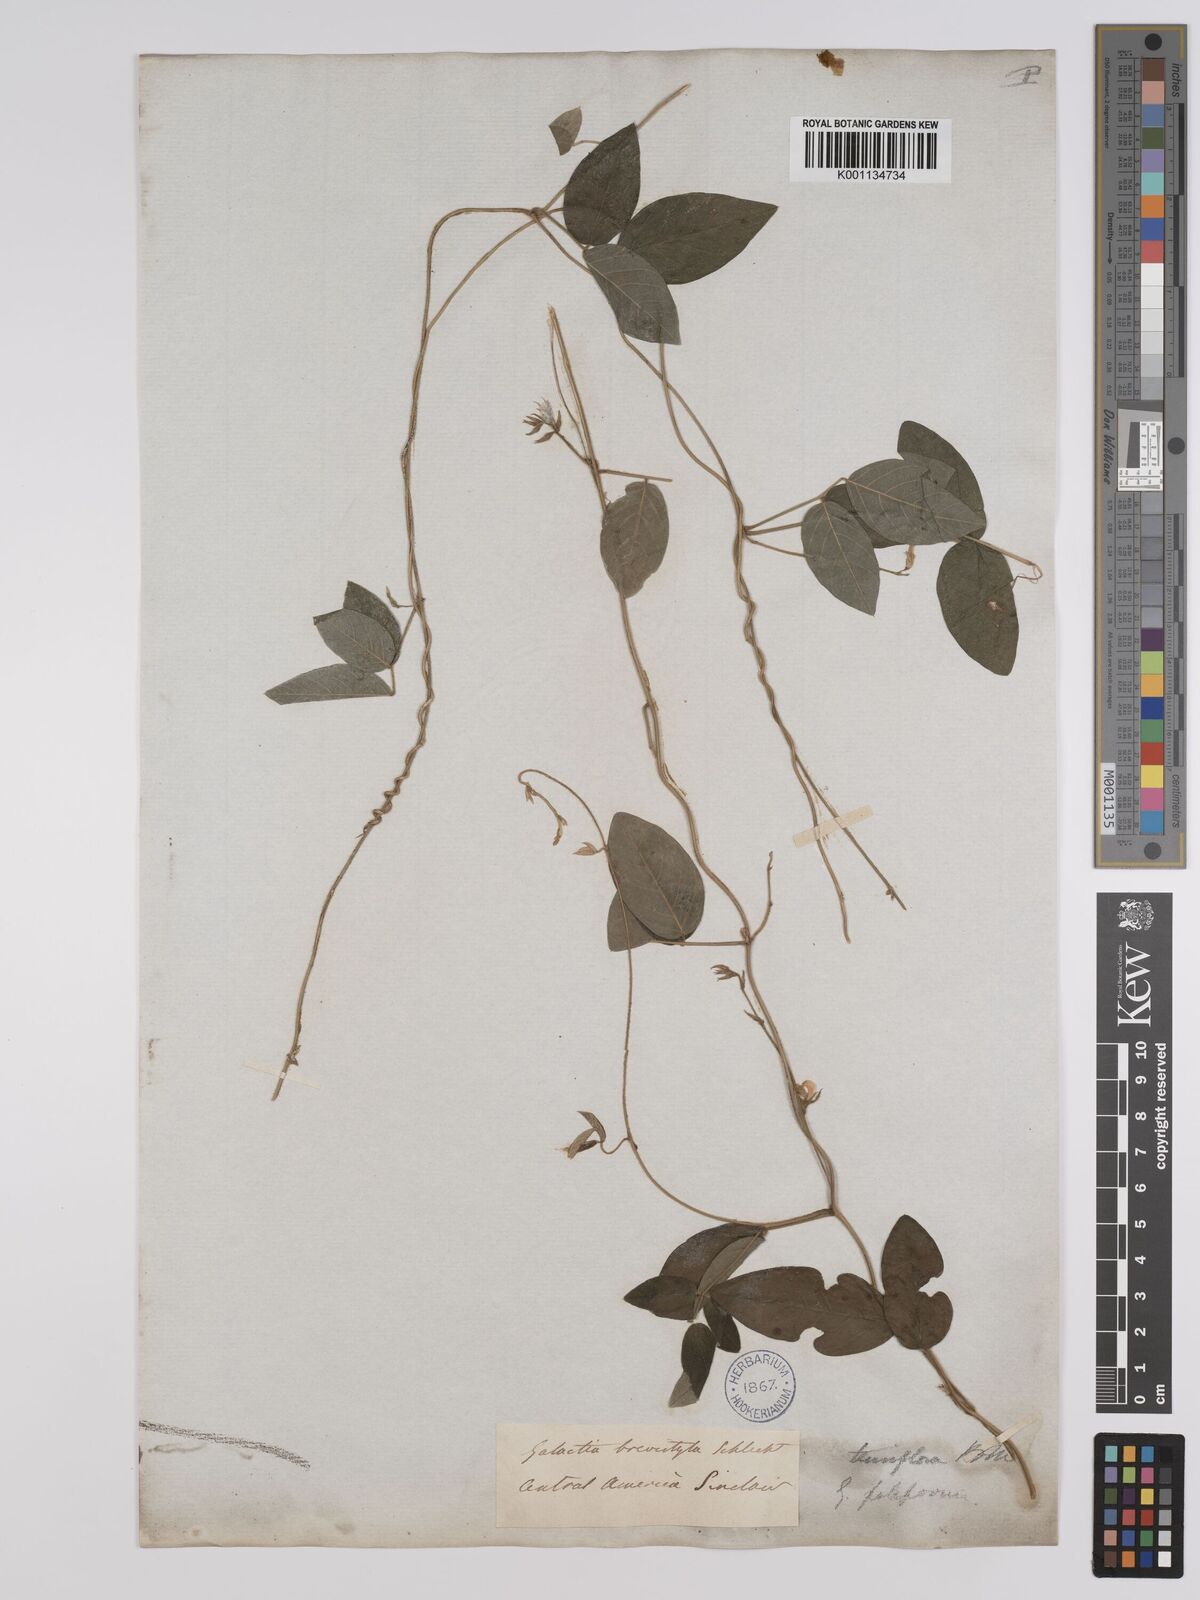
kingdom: Plantae
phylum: Tracheophyta
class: Magnoliopsida
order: Fabales
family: Fabaceae
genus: Galactia
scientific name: Galactia striata
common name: Florida hammock milkpea
